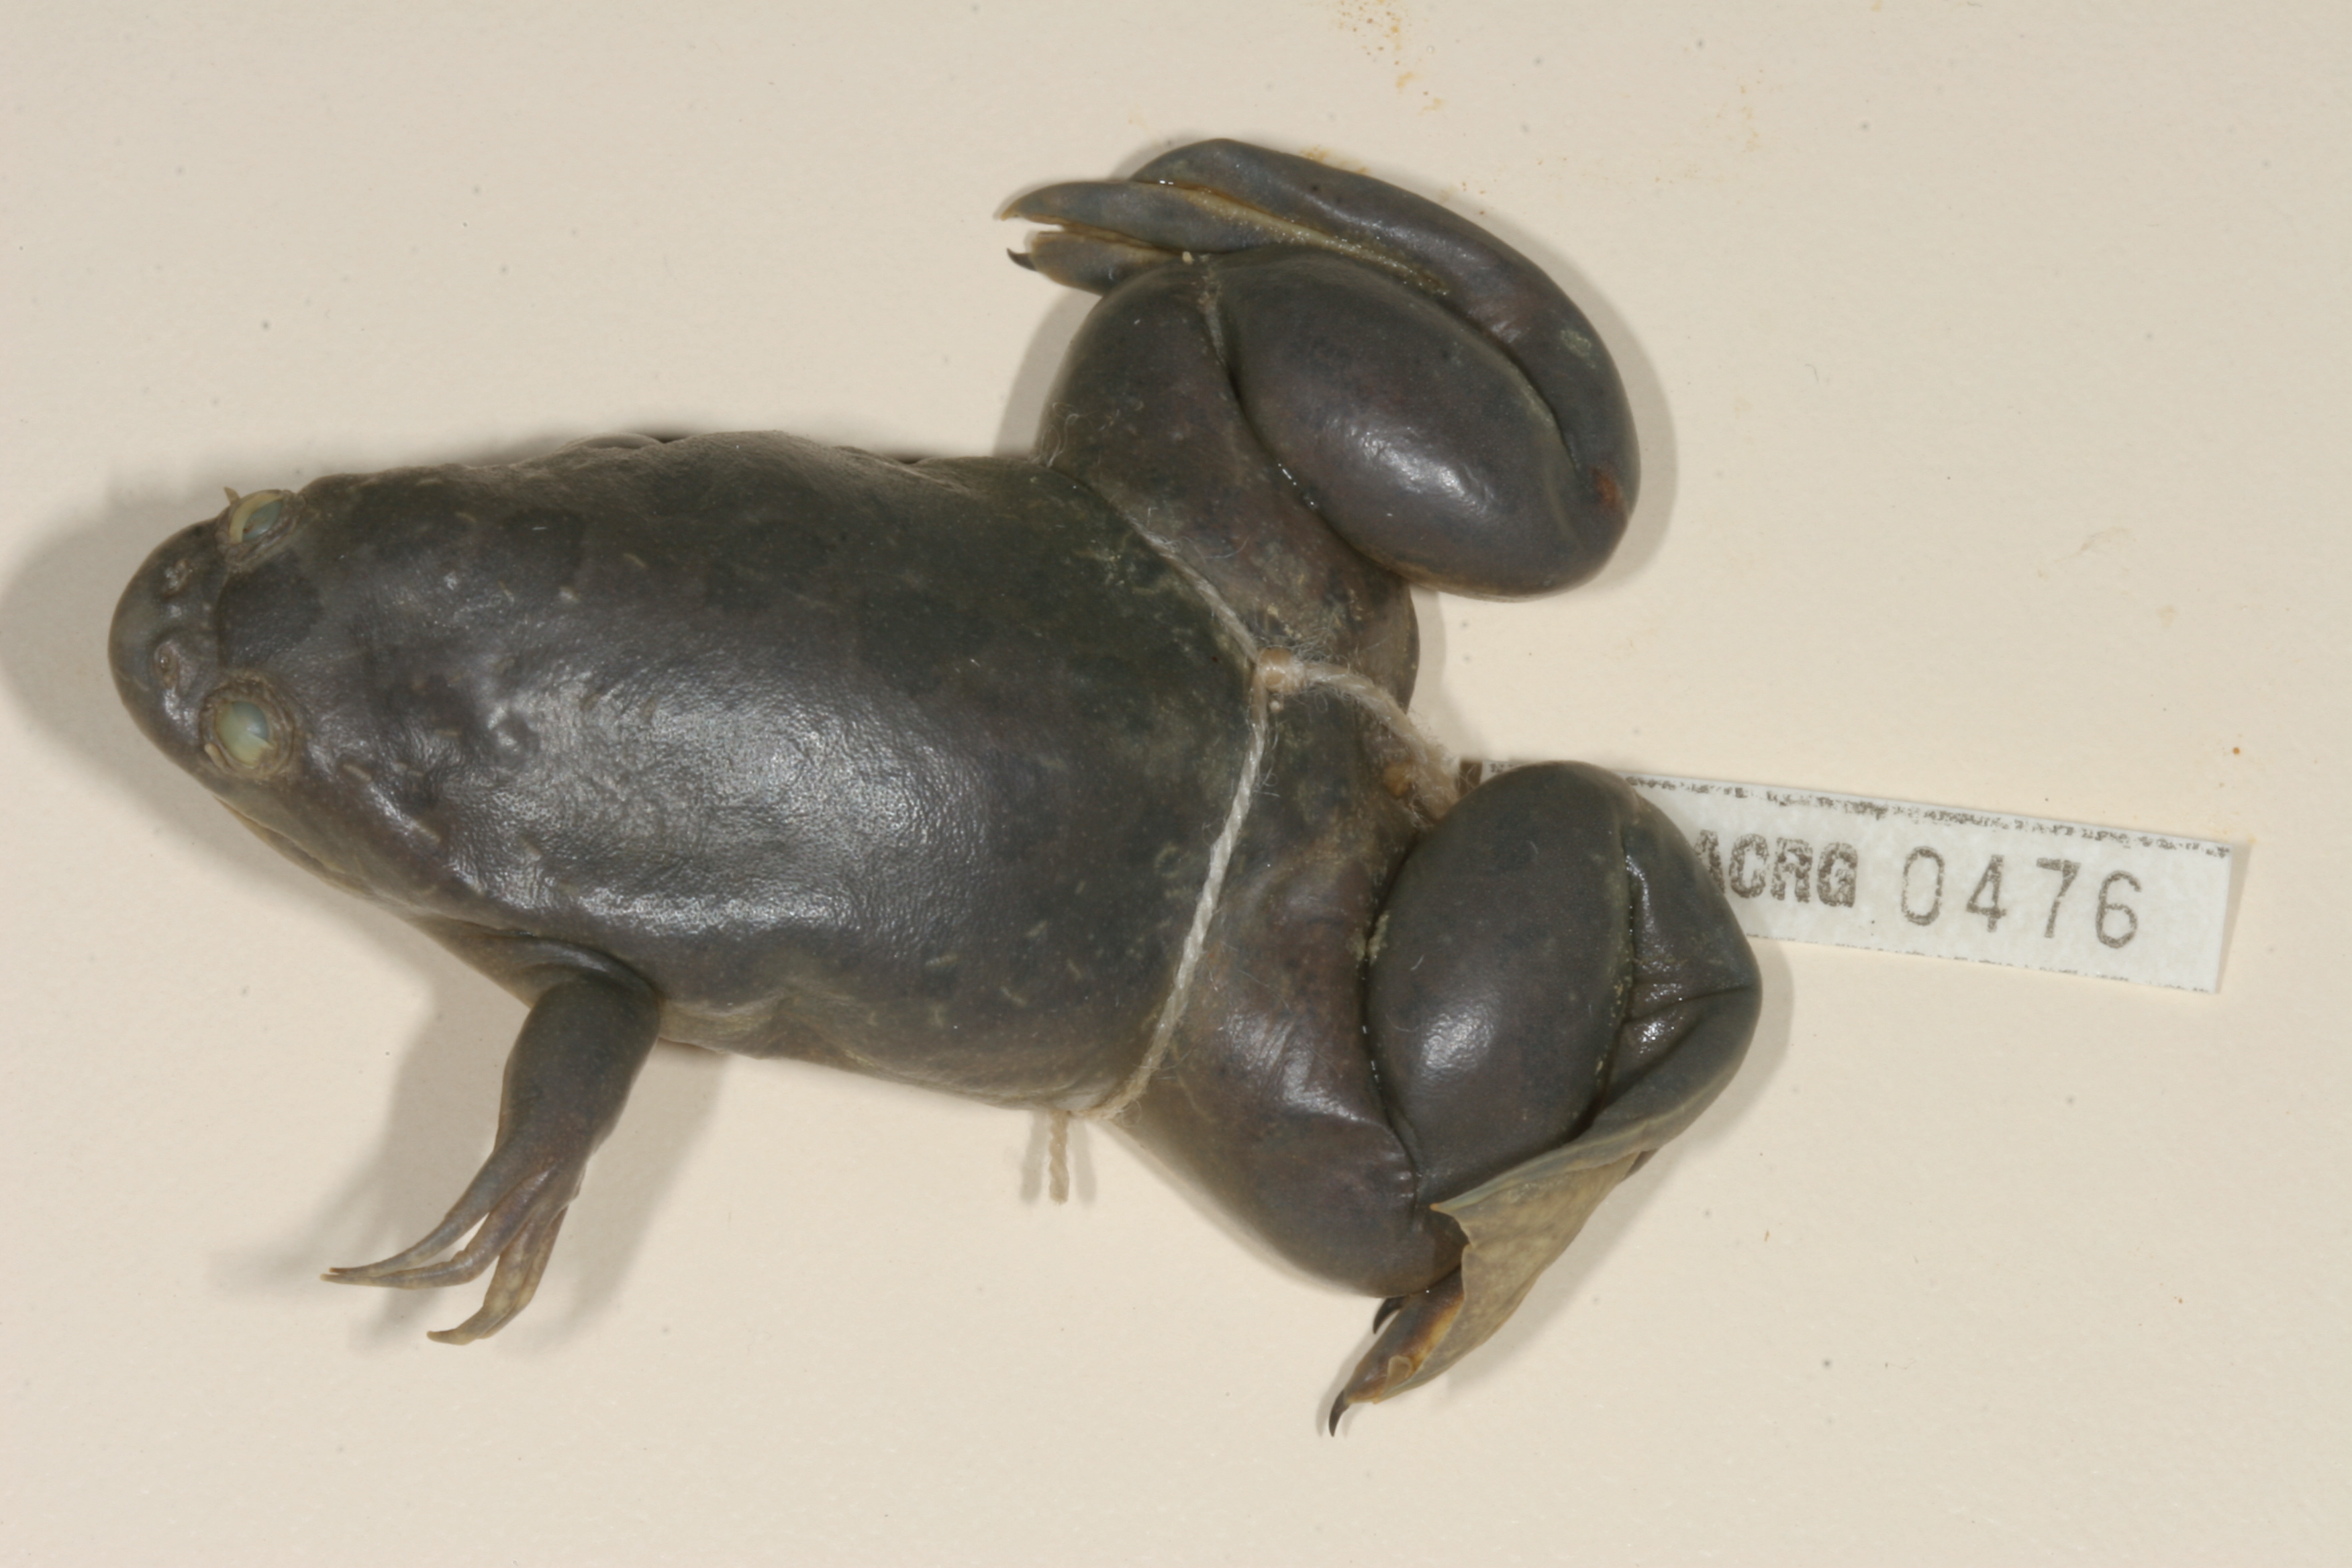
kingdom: Animalia
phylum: Chordata
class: Amphibia
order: Anura
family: Pipidae
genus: Xenopus
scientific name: Xenopus muelleri
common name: Muller's clawed frog
